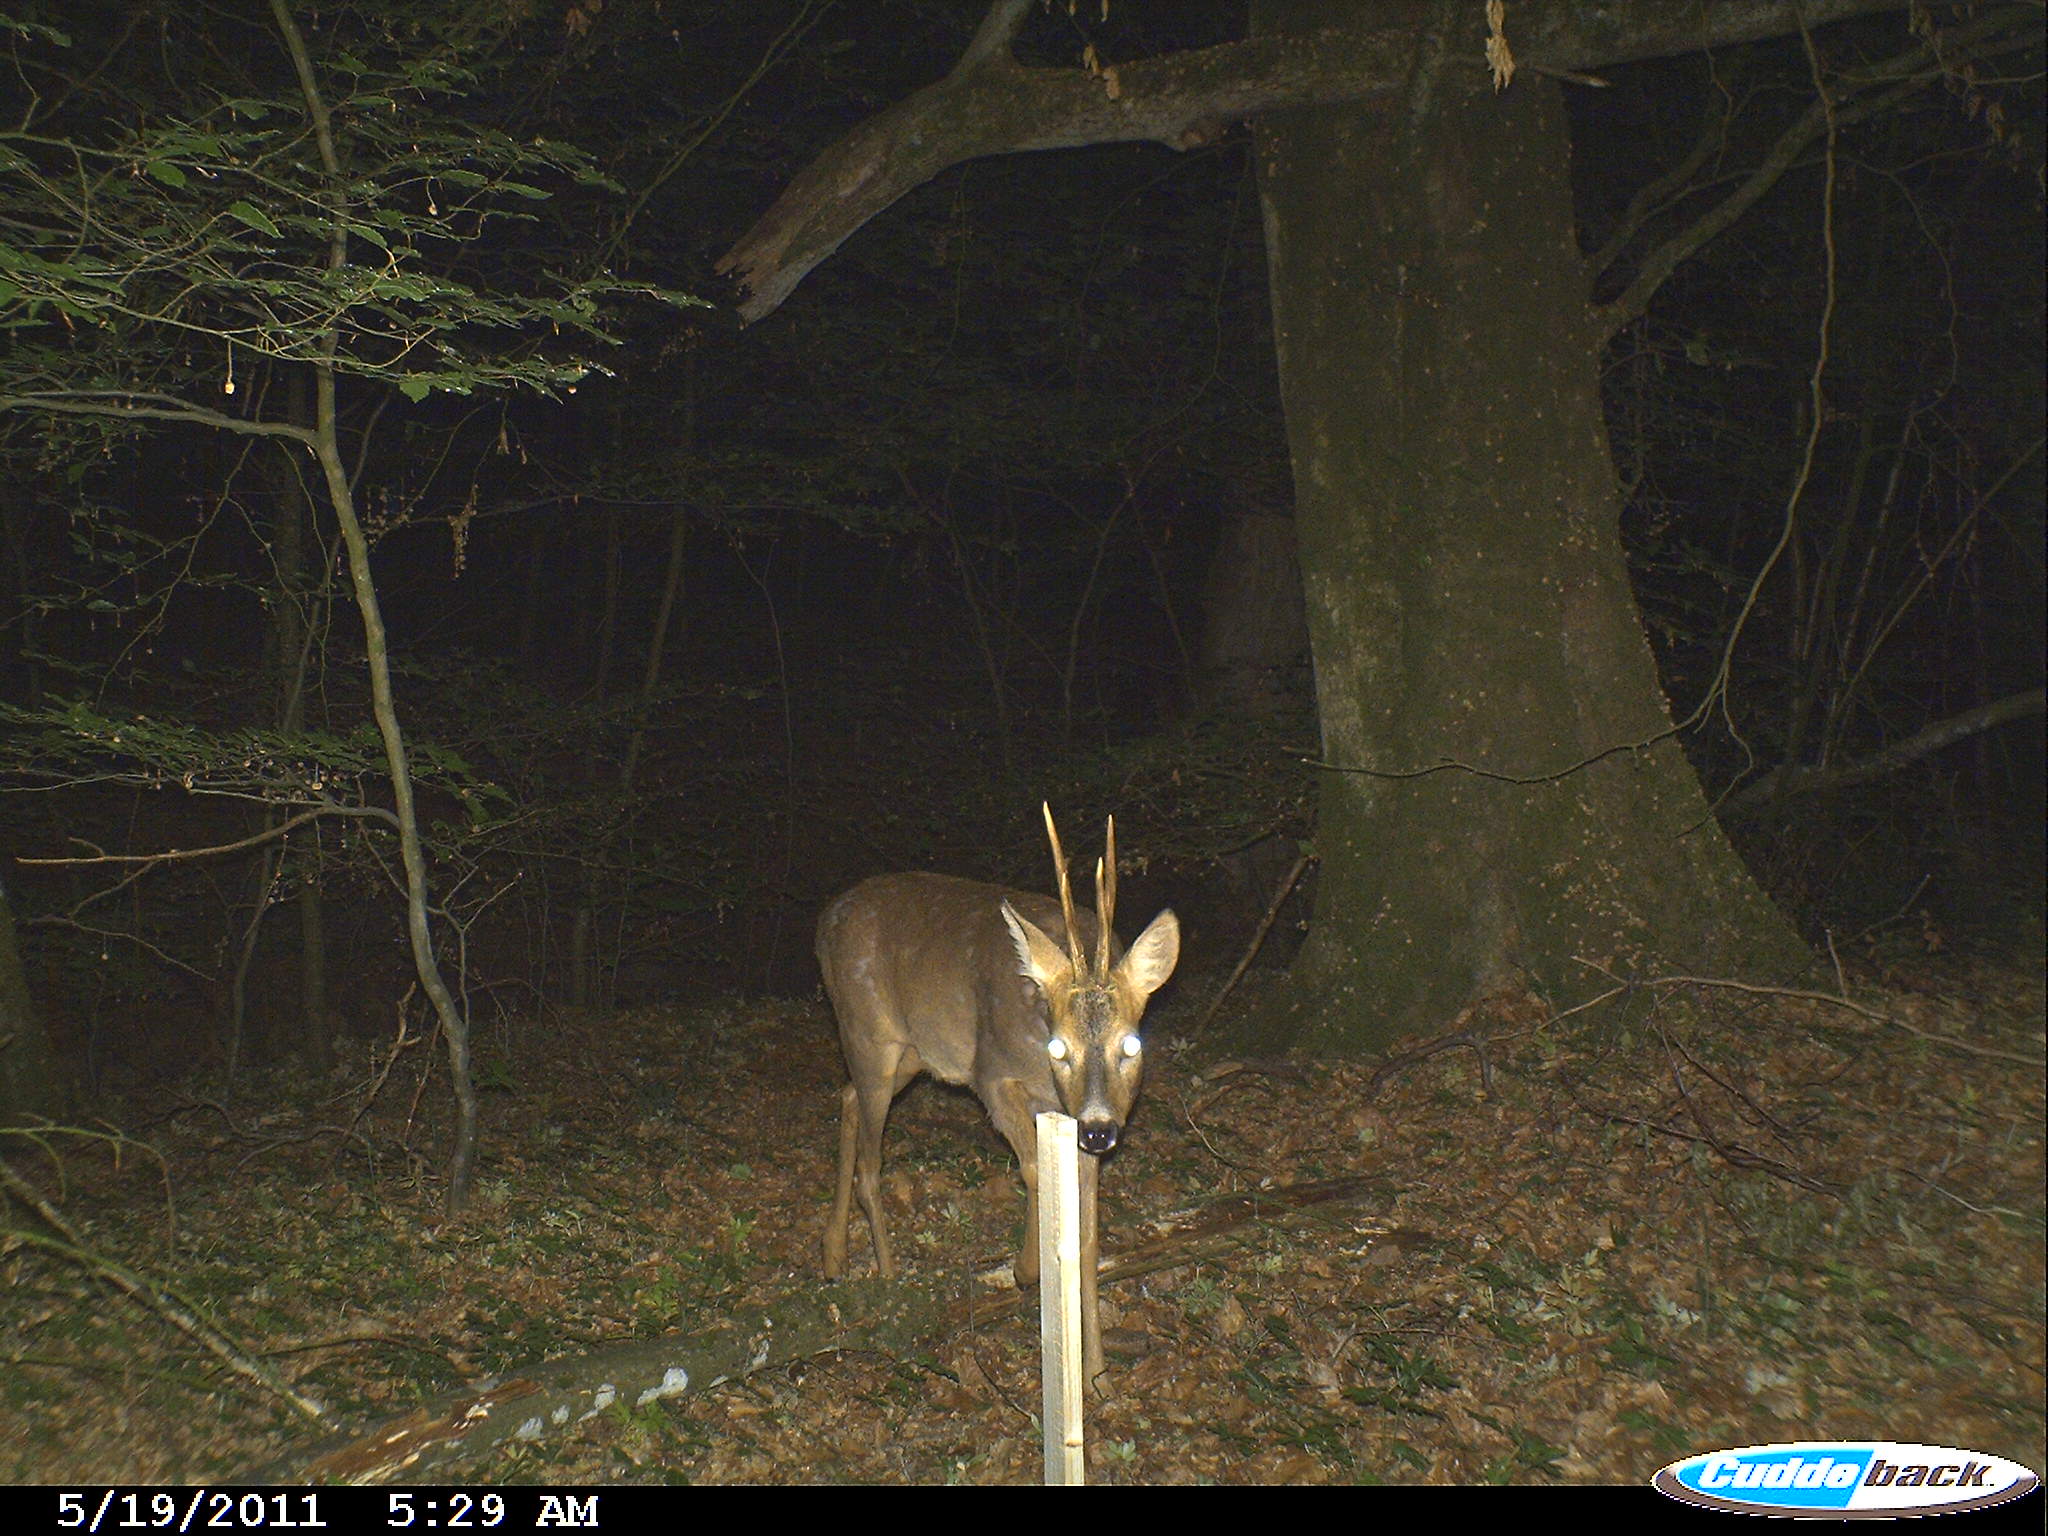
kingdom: Animalia
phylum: Chordata
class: Mammalia
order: Artiodactyla
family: Cervidae
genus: Capreolus
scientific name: Capreolus capreolus
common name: Western roe deer
